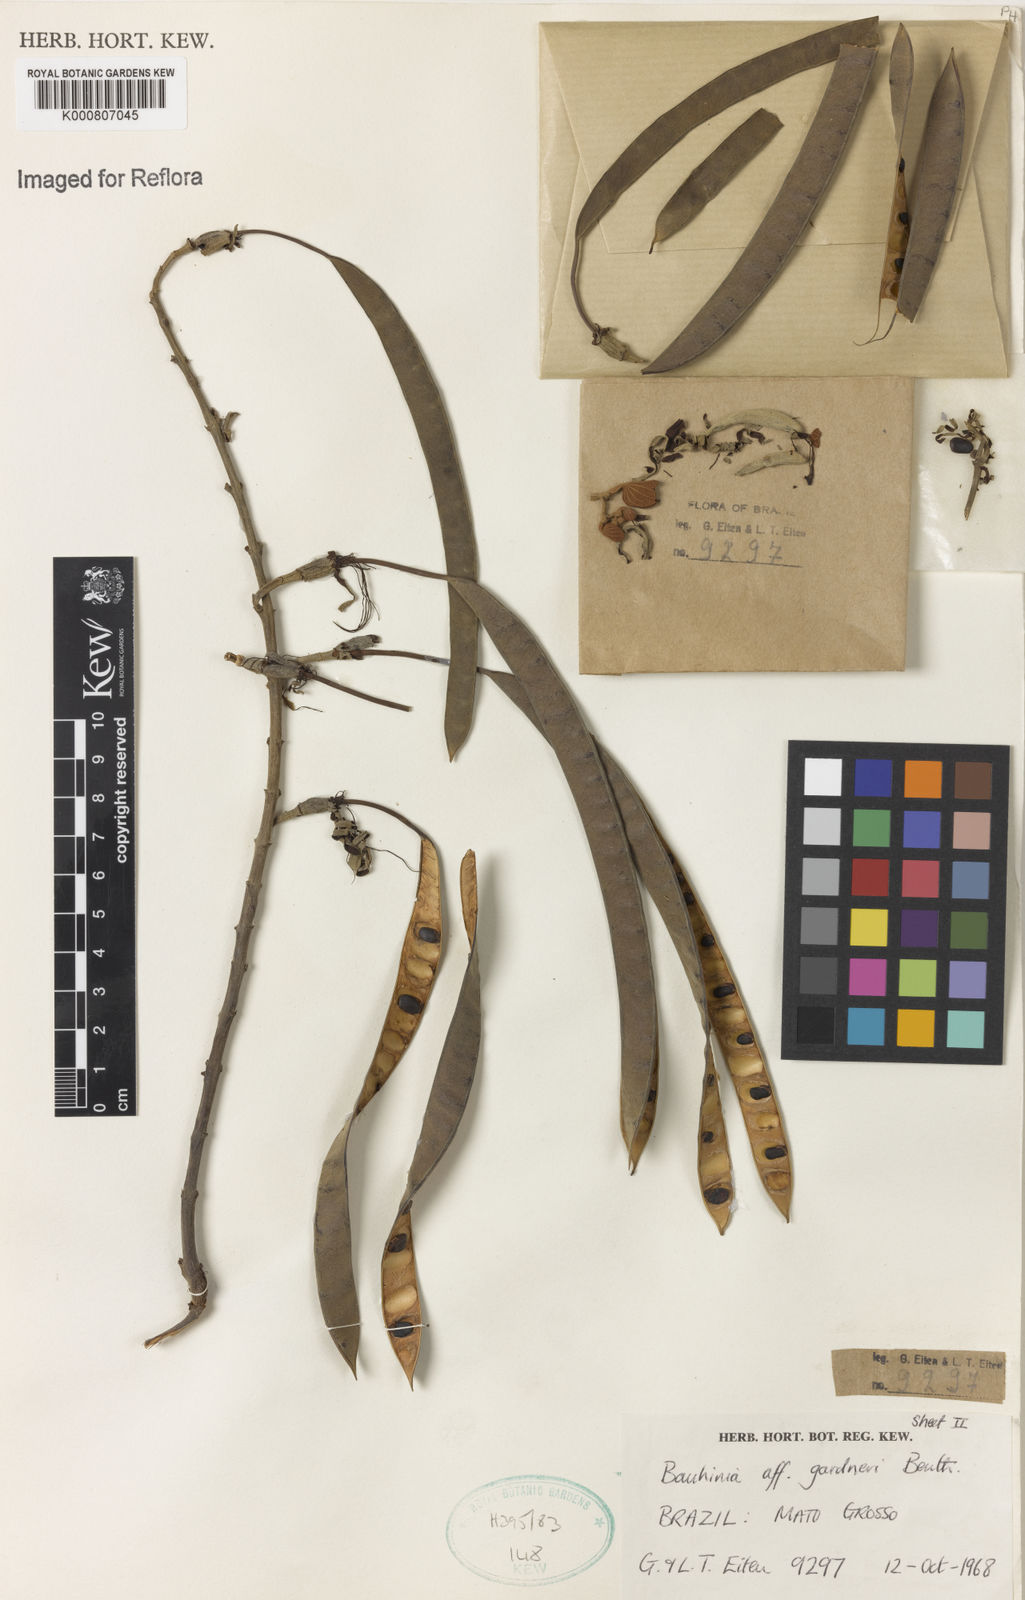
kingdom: Plantae
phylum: Tracheophyta
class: Magnoliopsida
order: Fabales
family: Fabaceae
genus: Bauhinia
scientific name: Bauhinia gardneri
